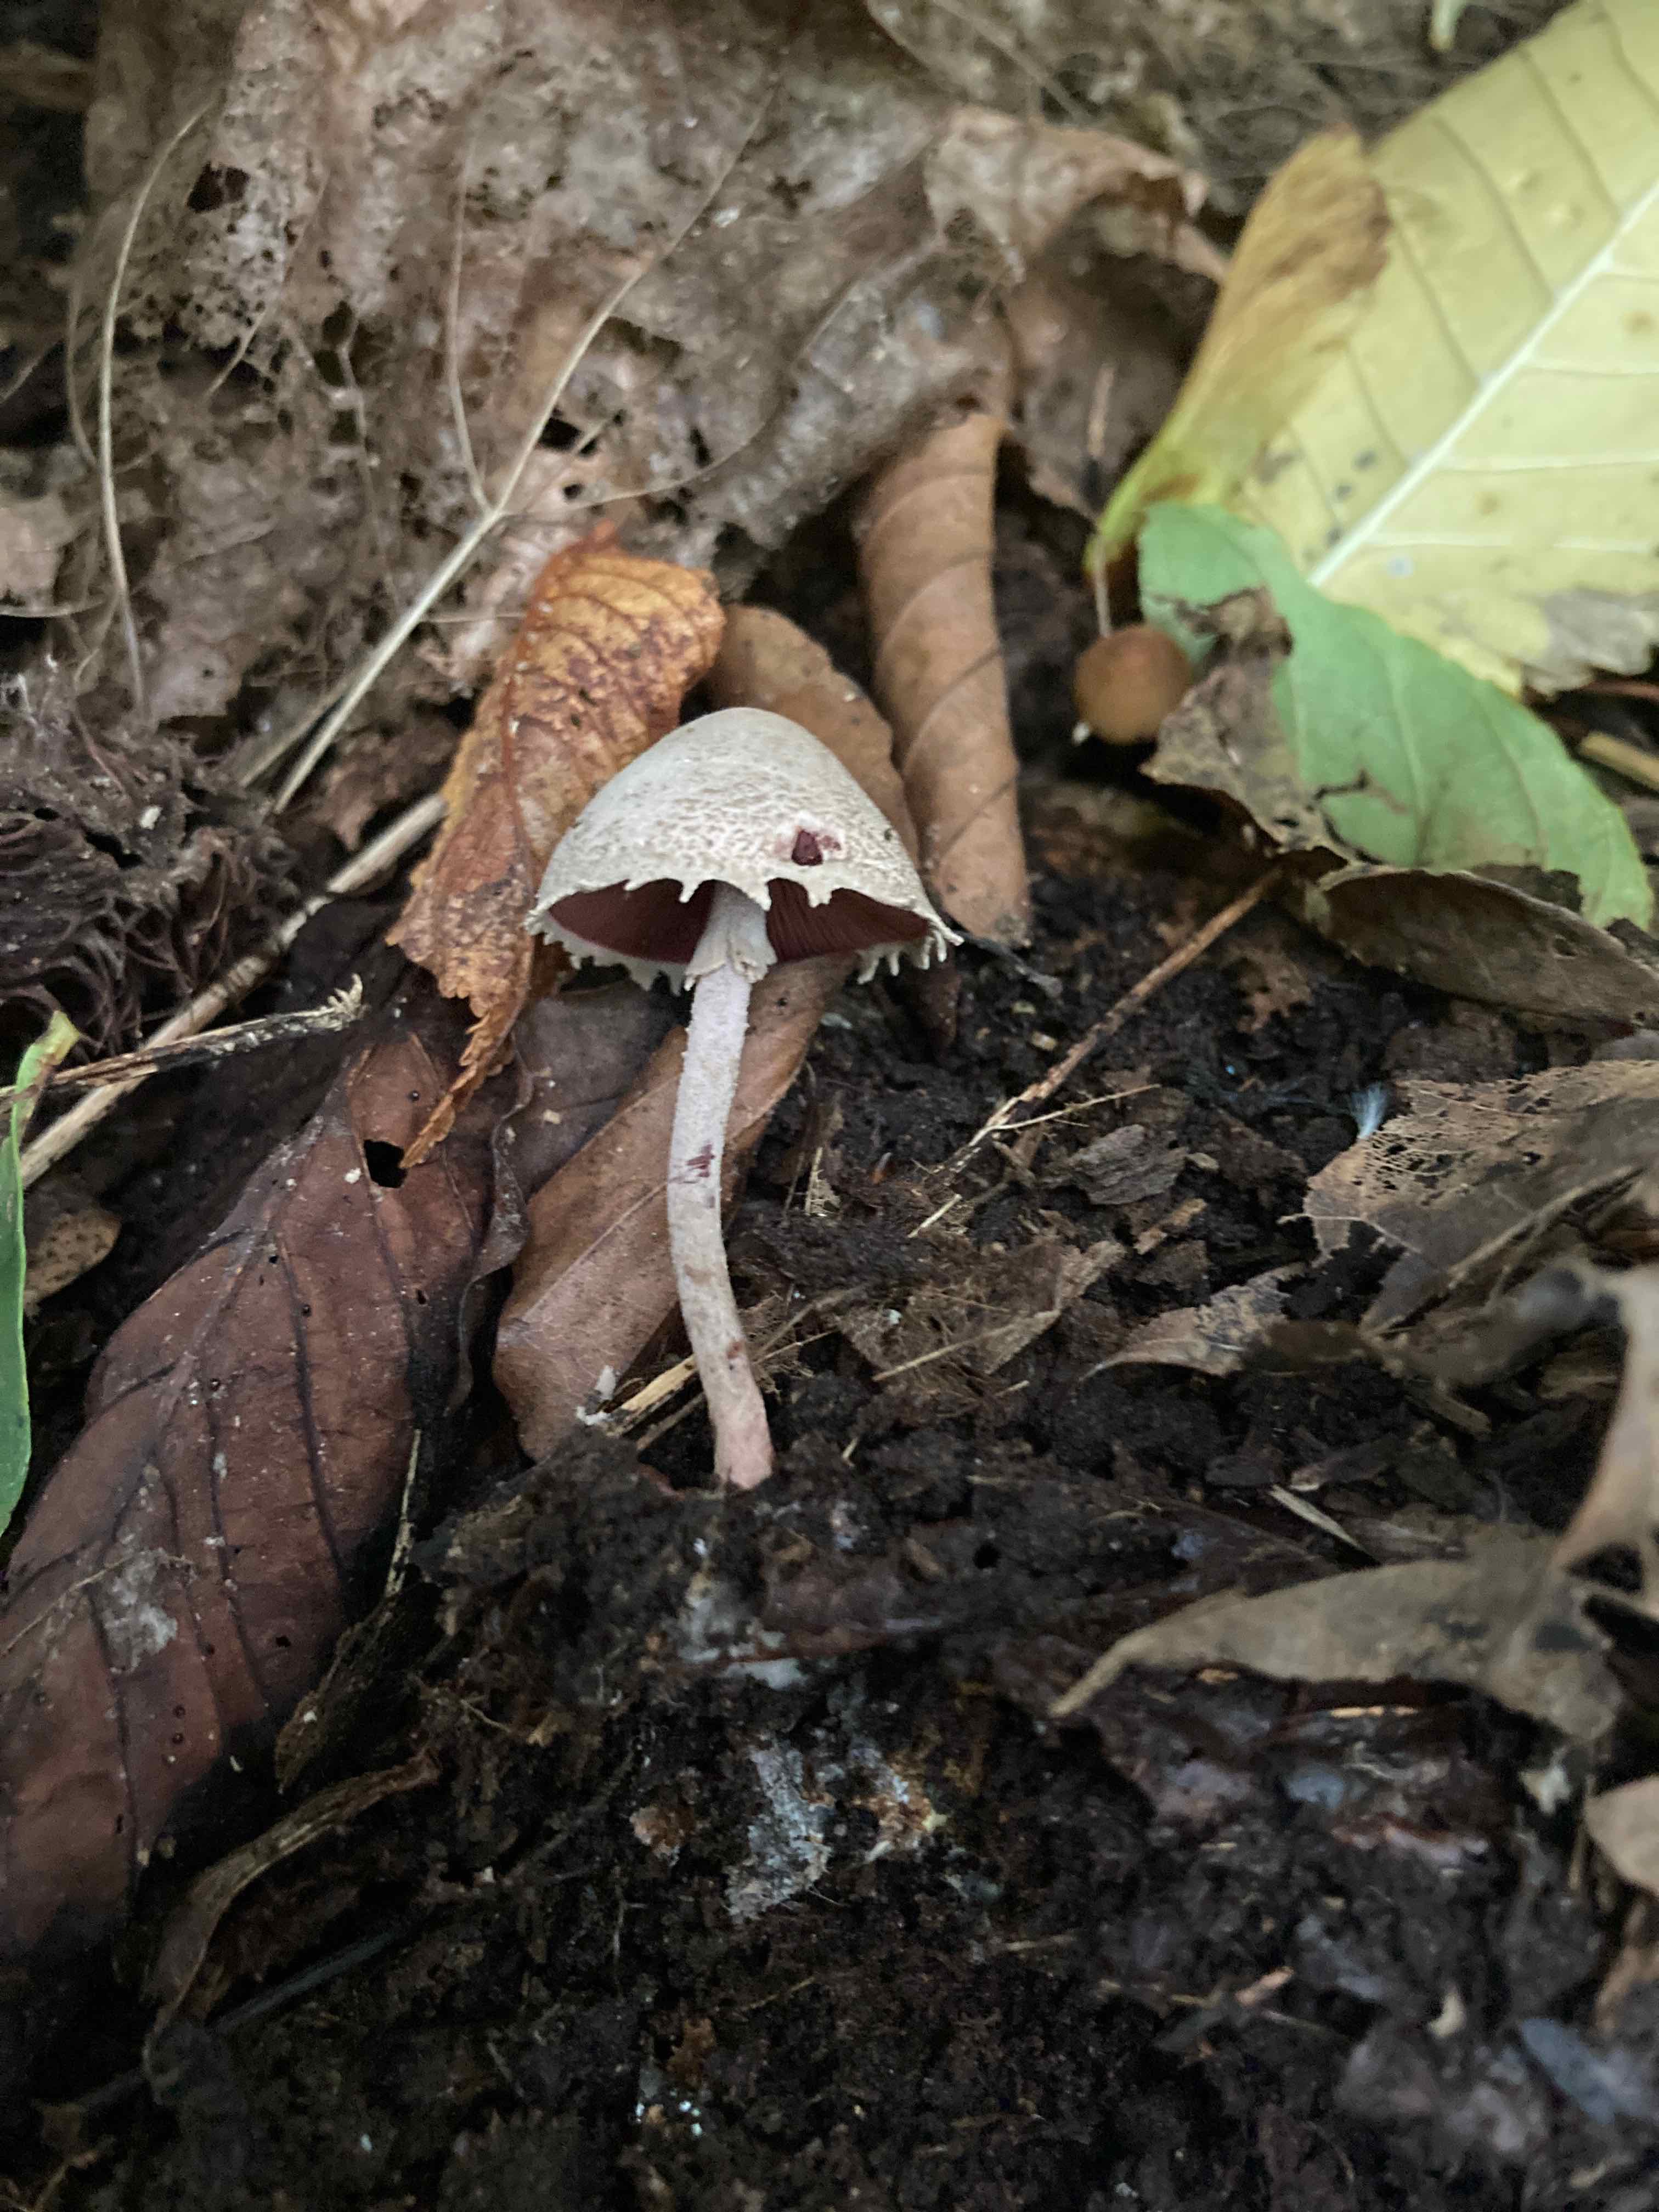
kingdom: Fungi
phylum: Basidiomycota
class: Agaricomycetes
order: Agaricales
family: Agaricaceae
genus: Melanophyllum
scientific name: Melanophyllum haematospermum
